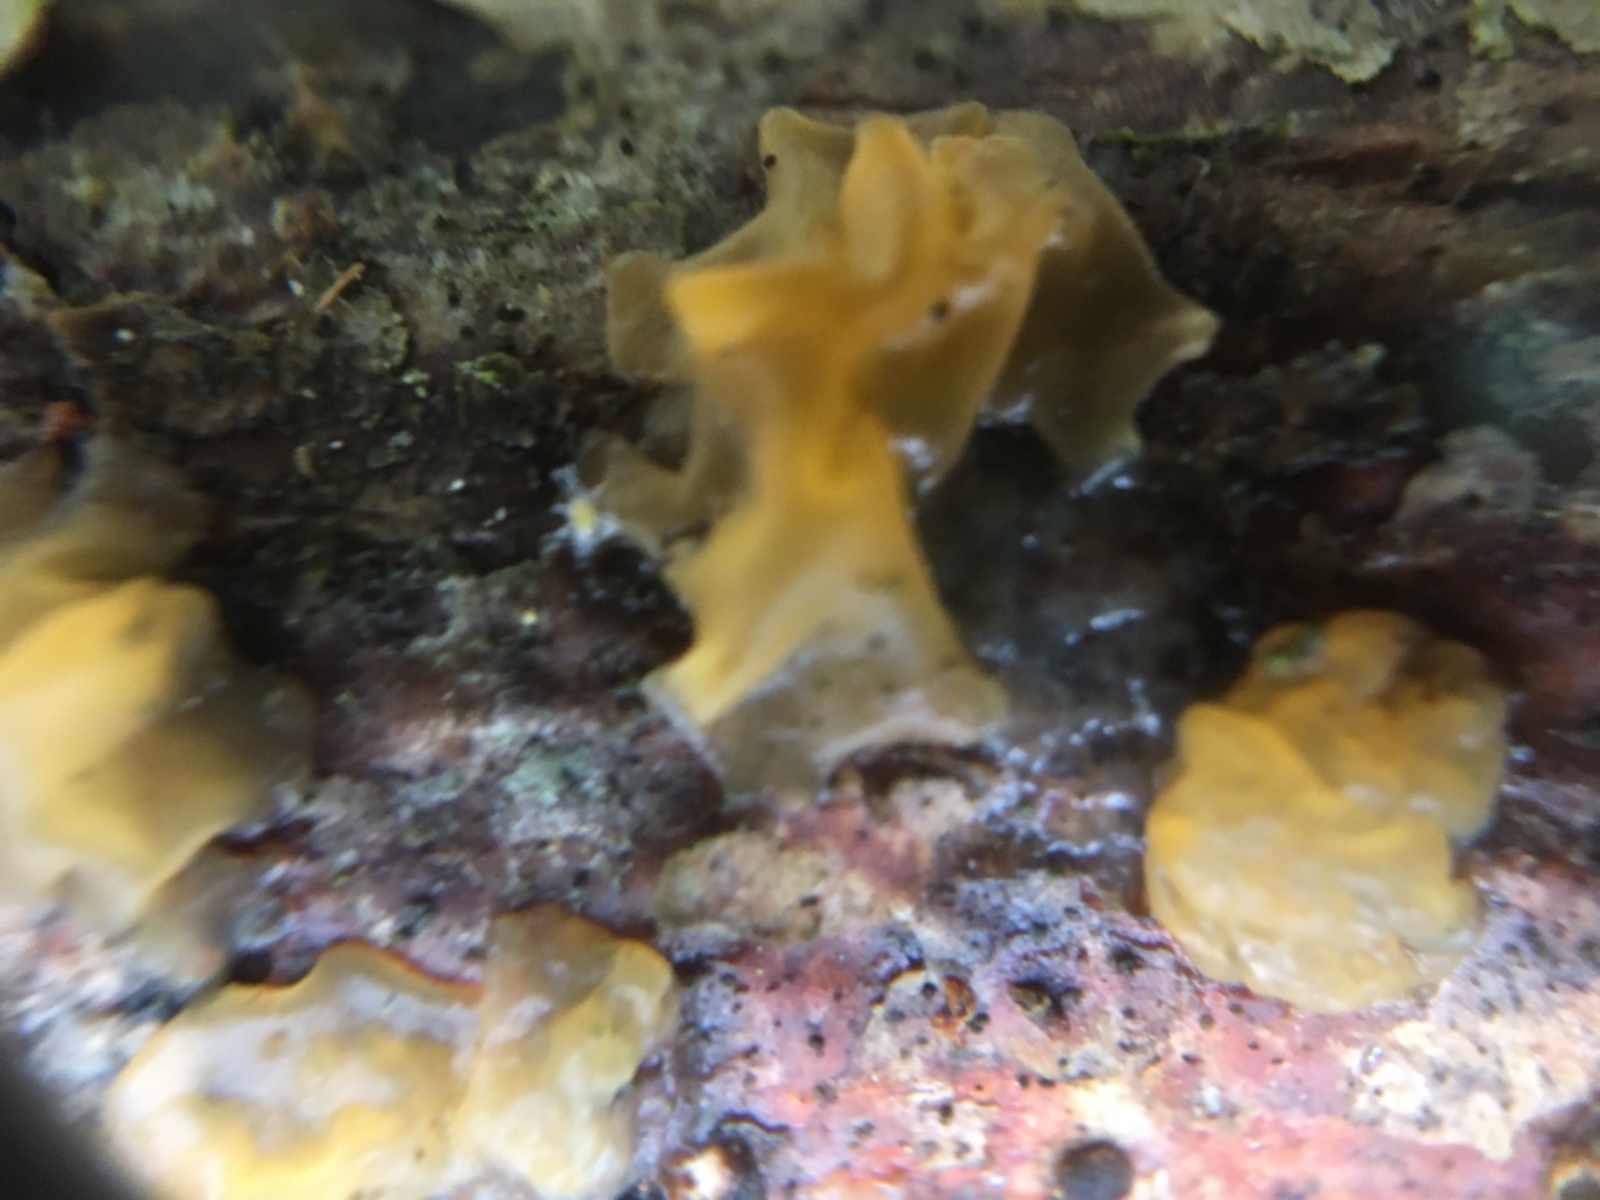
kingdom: Fungi
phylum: Basidiomycota
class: Tremellomycetes
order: Tremellales
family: Tremellaceae
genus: Tremella
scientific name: Tremella mesenterica
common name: gul bævresvamp
